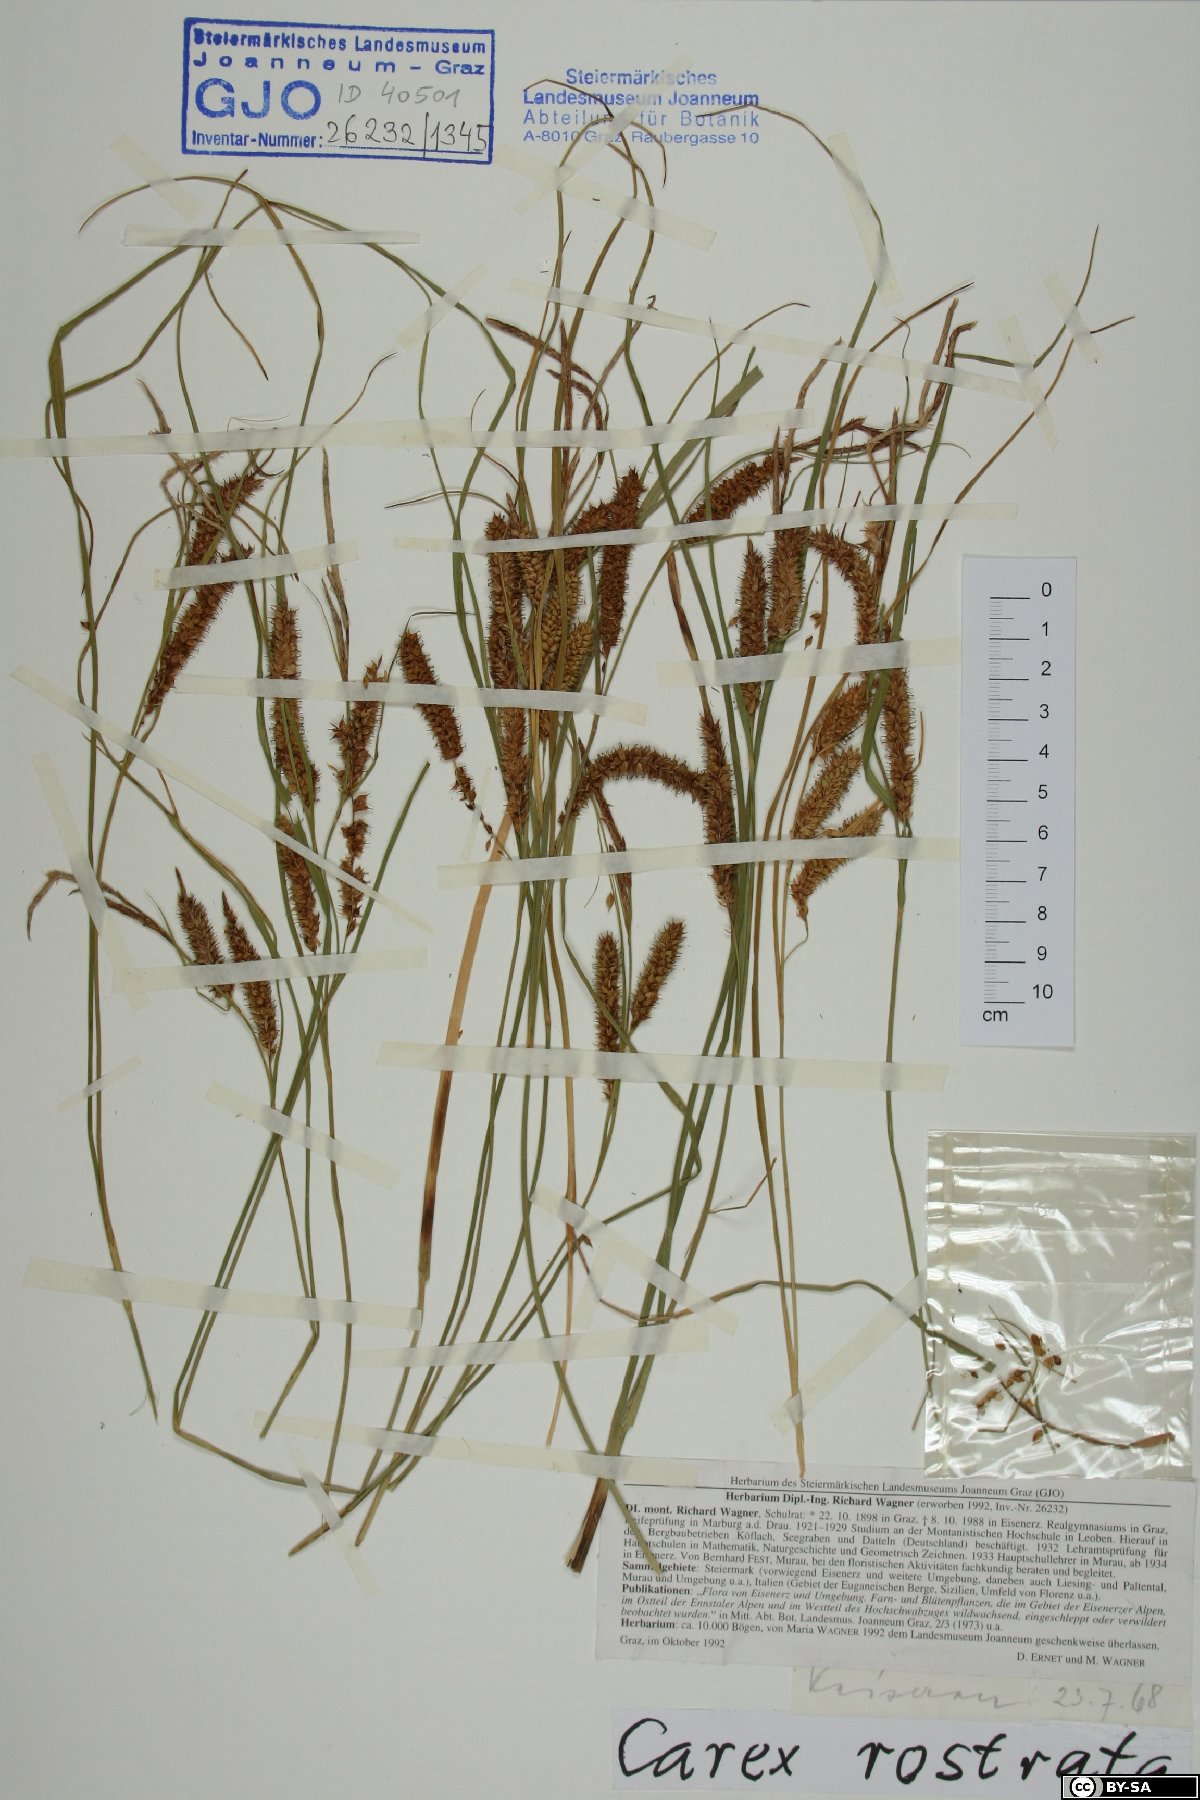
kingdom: Plantae
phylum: Tracheophyta
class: Liliopsida
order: Poales
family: Cyperaceae
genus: Carex
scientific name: Carex rostrata
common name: Bottle sedge
